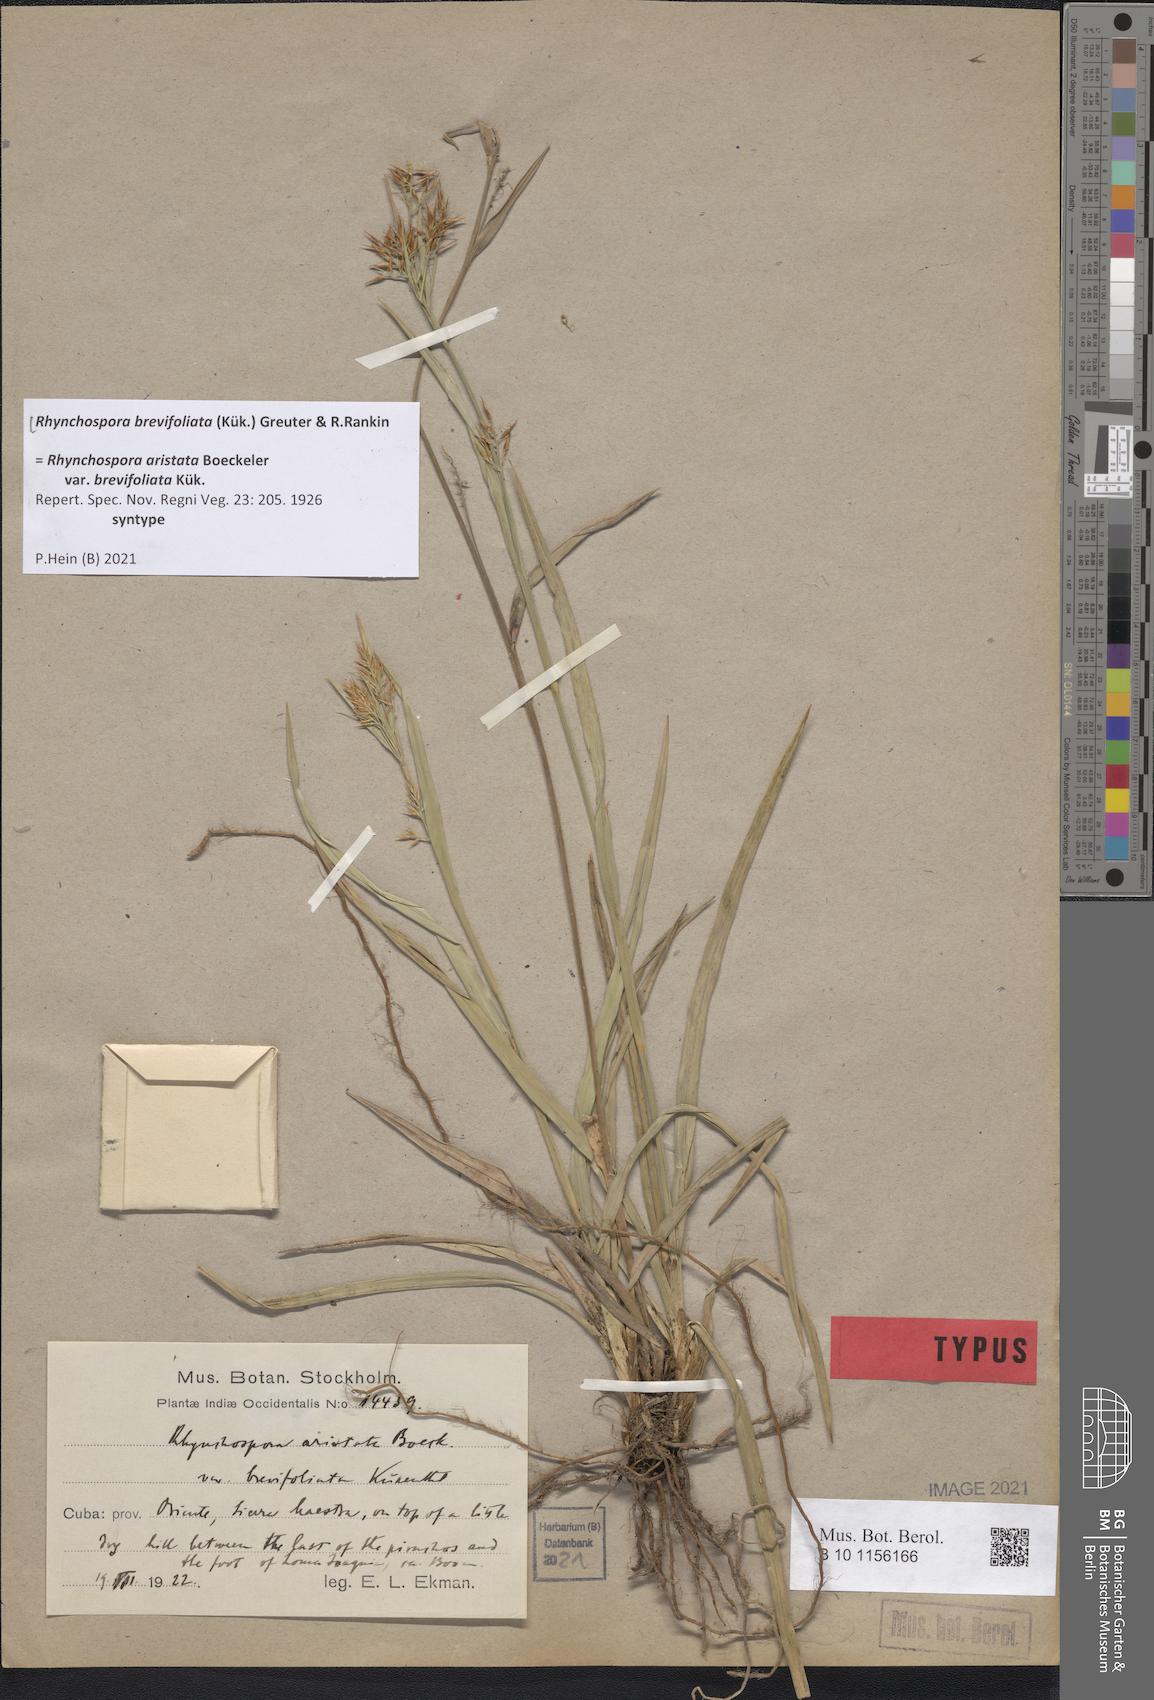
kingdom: Plantae
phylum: Tracheophyta
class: Liliopsida
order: Poales
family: Cyperaceae
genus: Rhynchospora
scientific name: Rhynchospora brevifoliata
